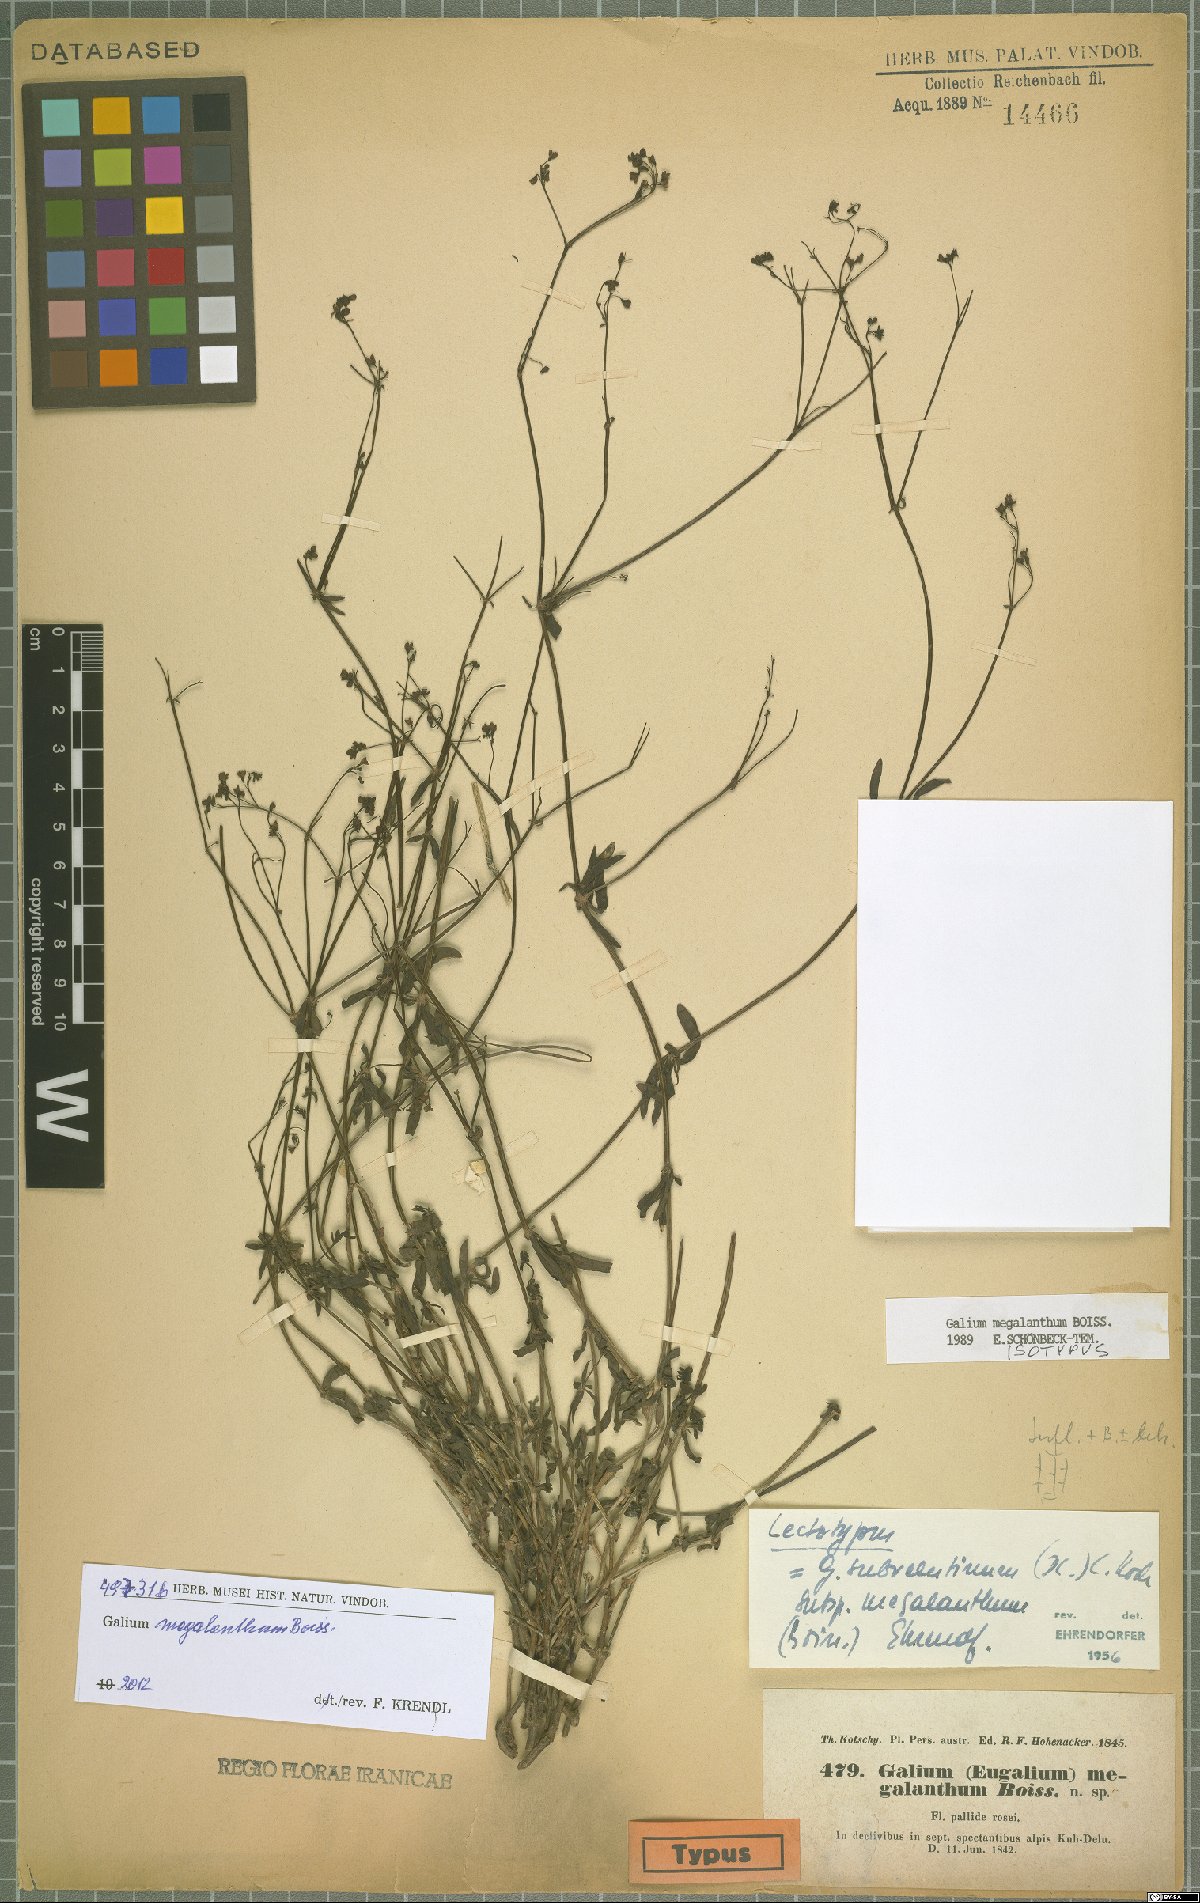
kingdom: Plantae
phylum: Tracheophyta
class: Magnoliopsida
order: Gentianales
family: Rubiaceae
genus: Galium
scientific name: Galium megalanthum
